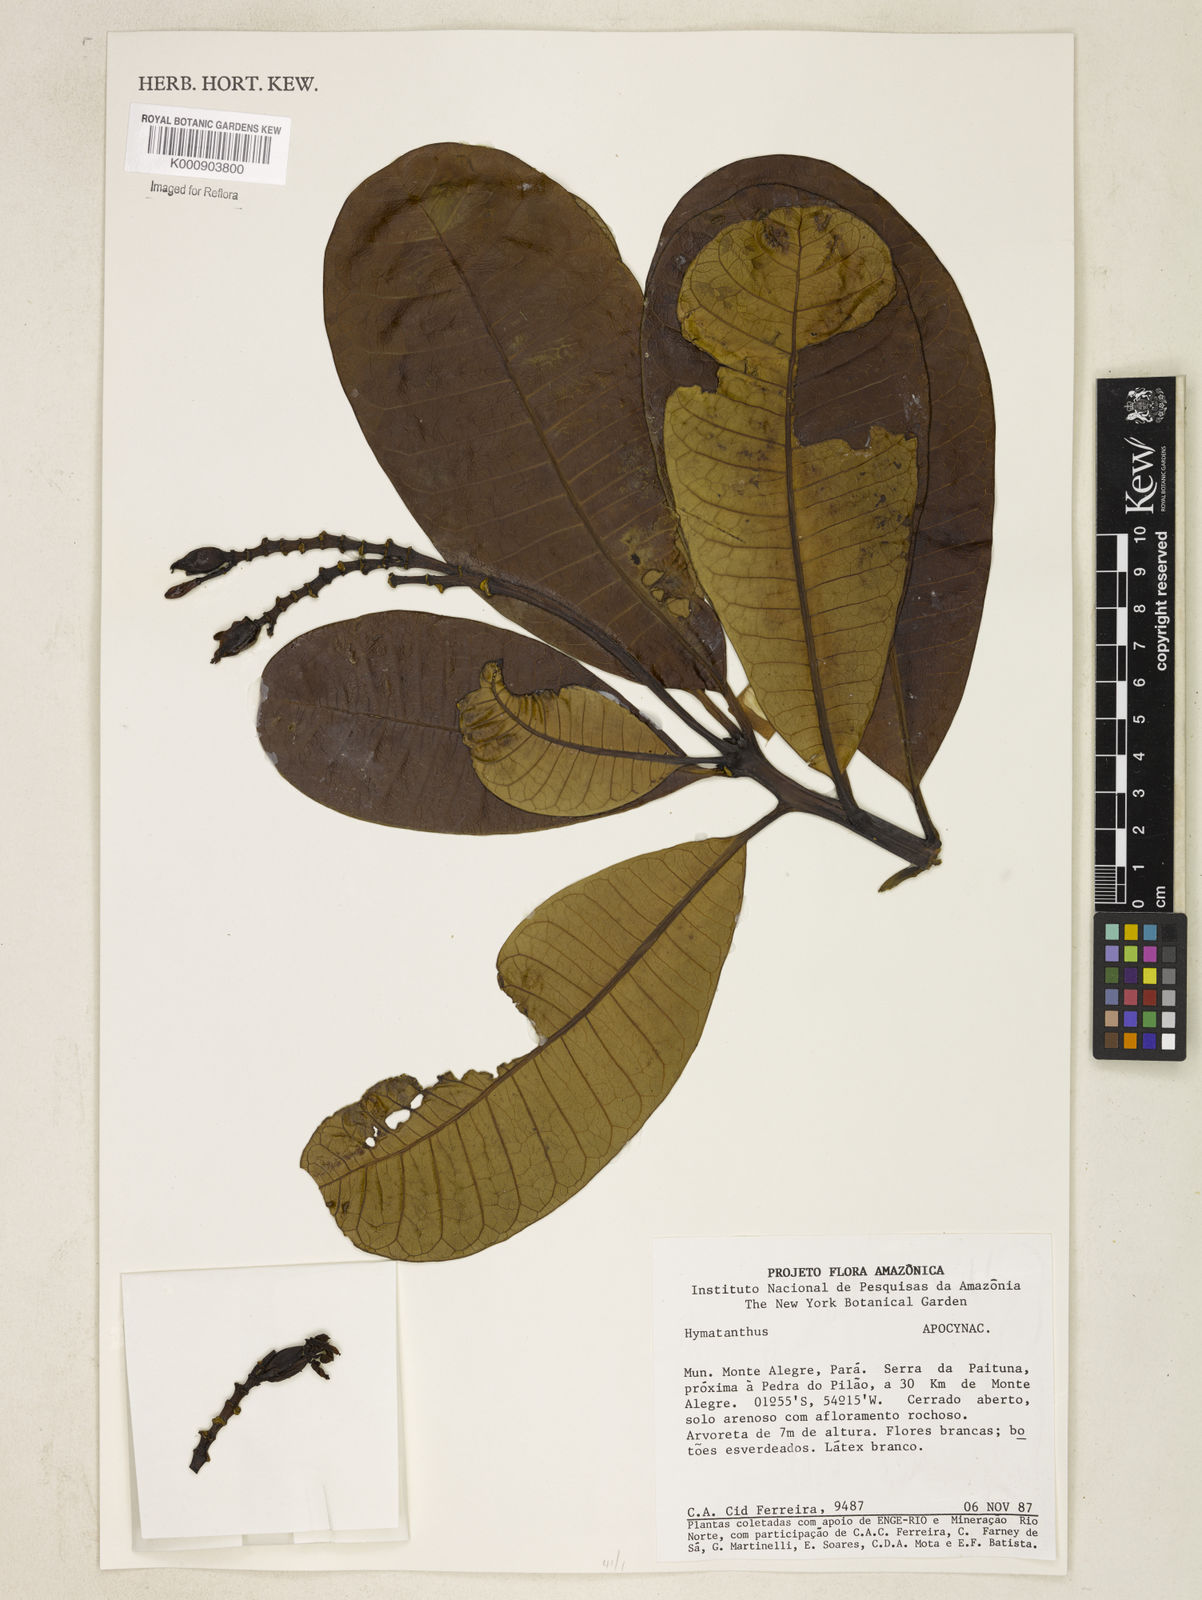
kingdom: Plantae
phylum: Tracheophyta
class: Magnoliopsida
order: Gentianales
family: Apocynaceae
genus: Himatanthus
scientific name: Himatanthus
